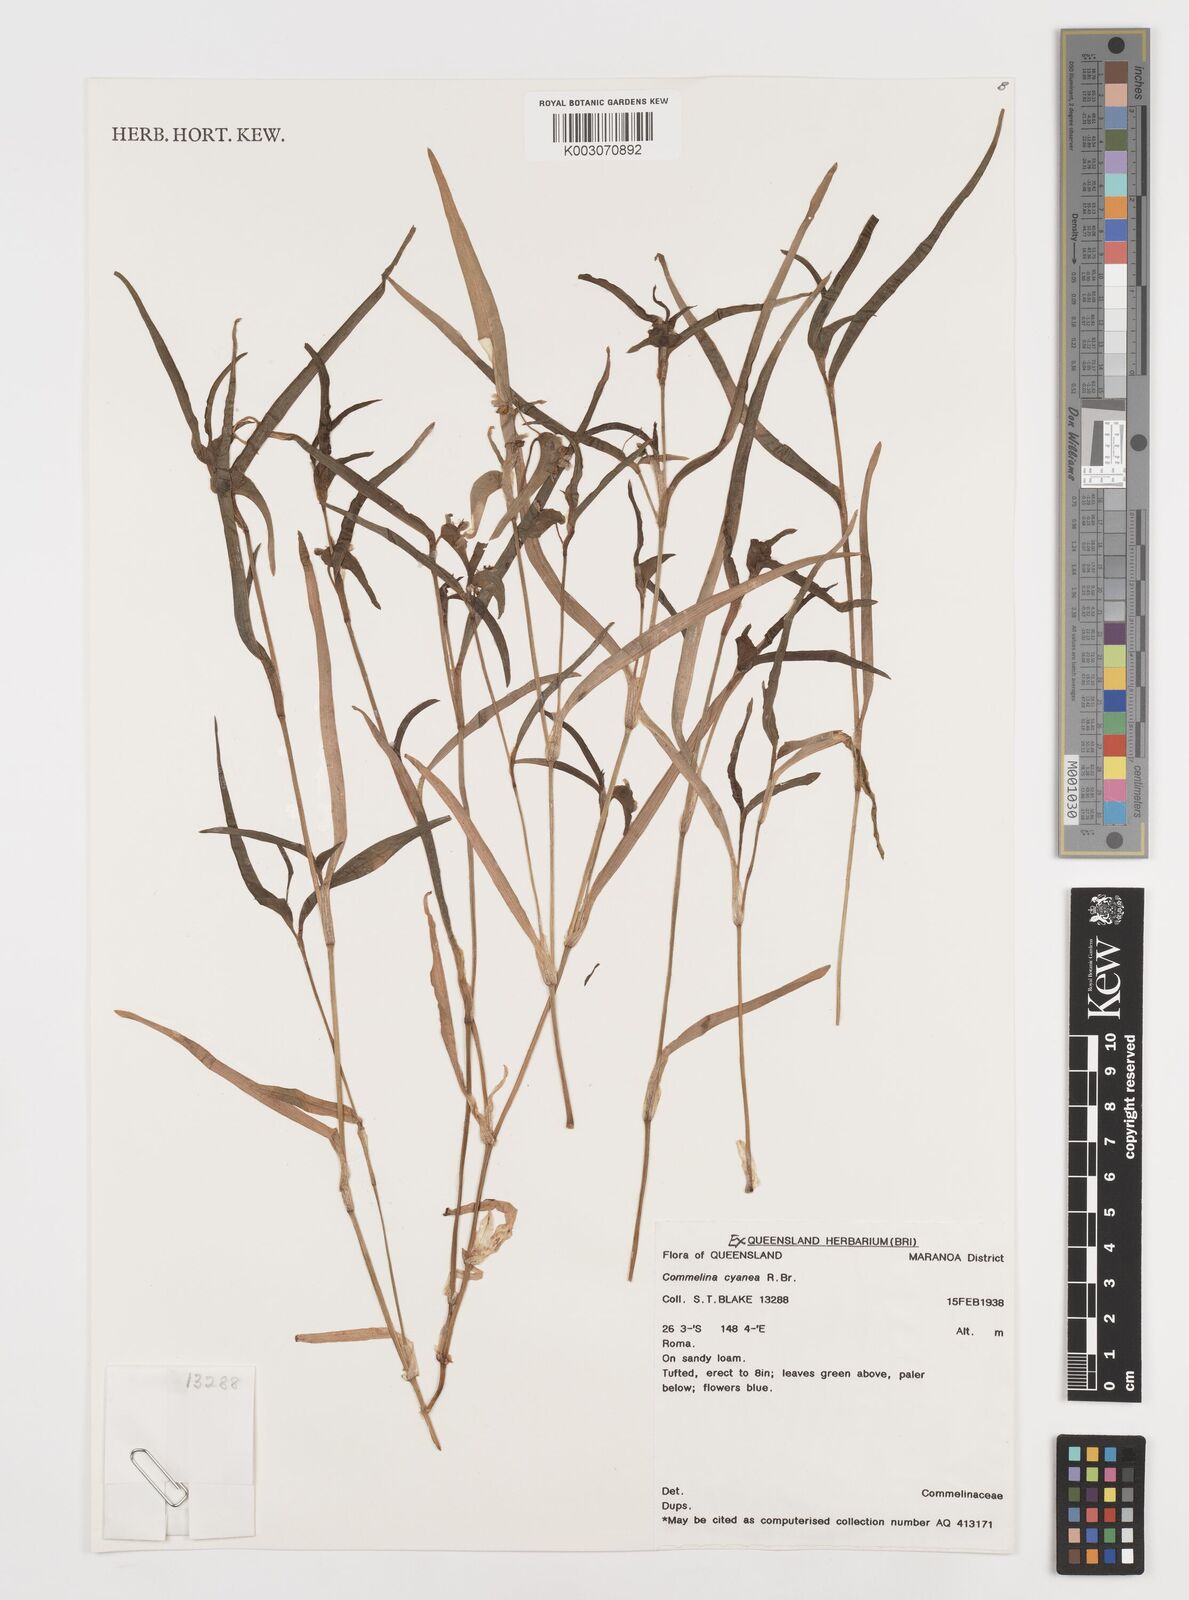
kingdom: Plantae
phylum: Tracheophyta
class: Liliopsida
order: Commelinales
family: Commelinaceae
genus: Commelina
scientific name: Commelina cyanea
